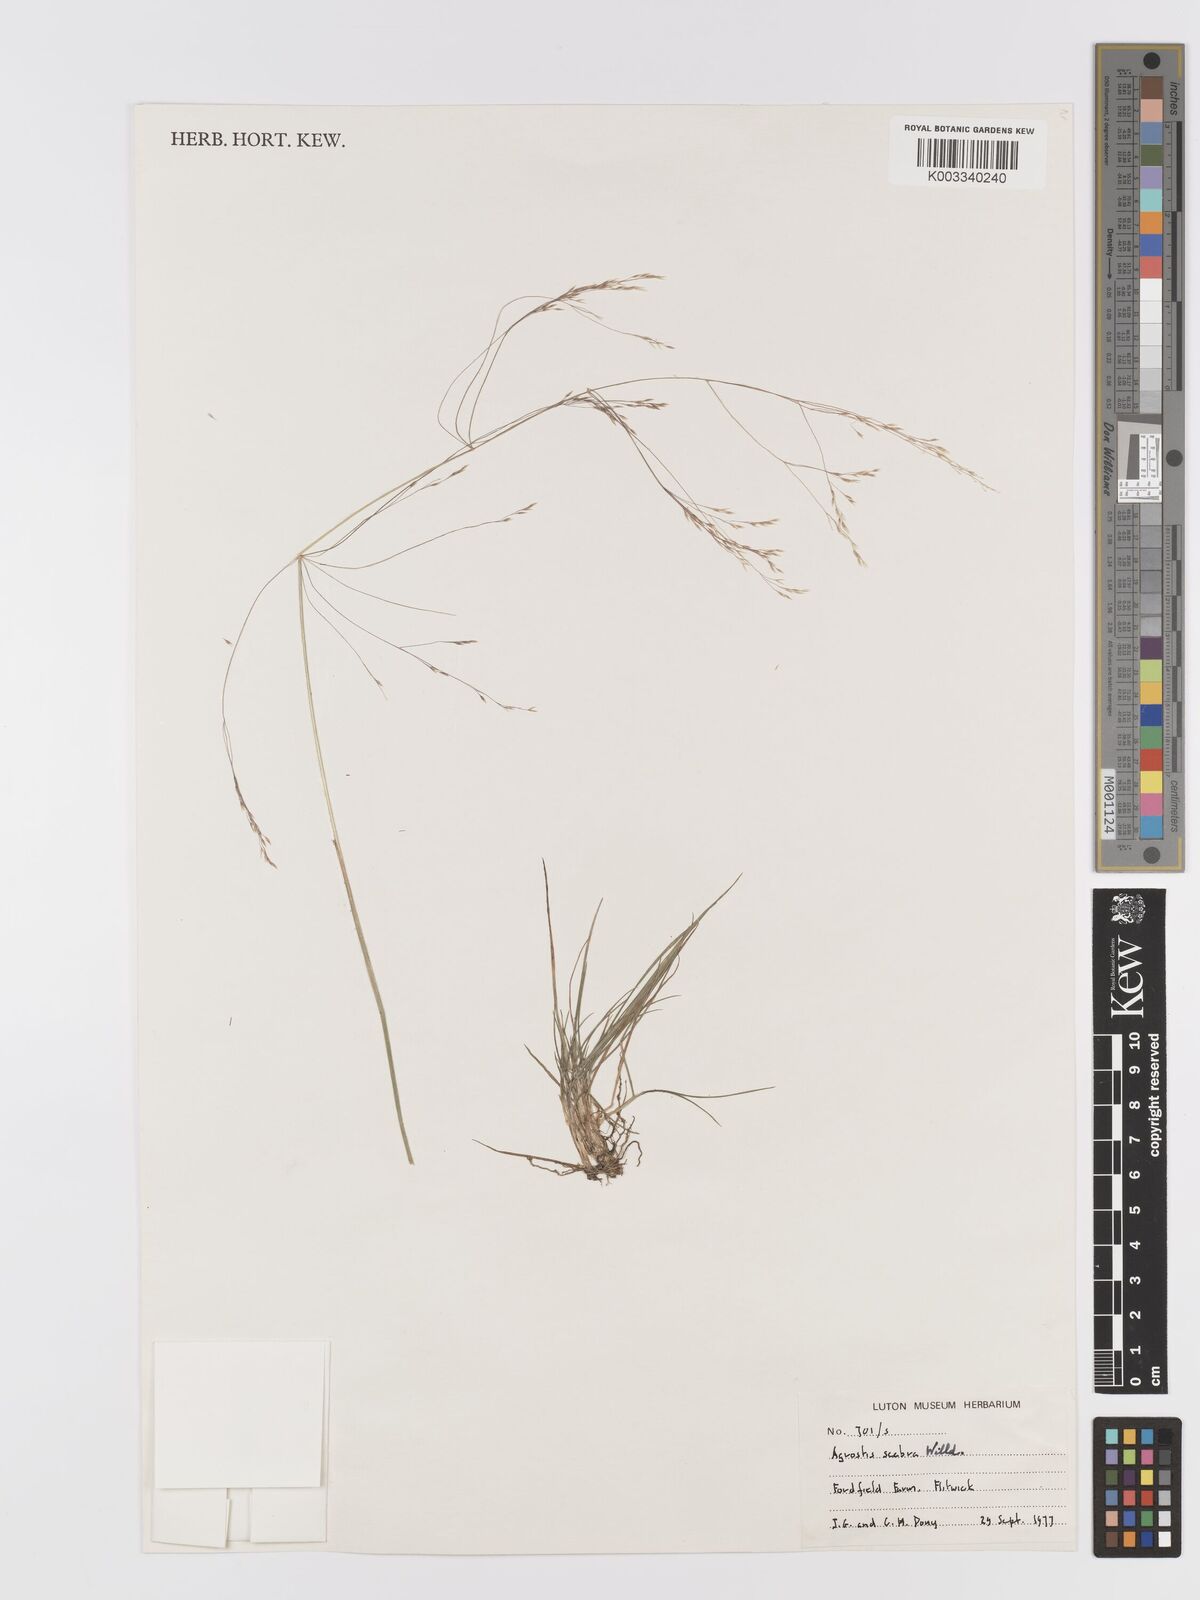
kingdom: Plantae
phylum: Tracheophyta
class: Liliopsida
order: Poales
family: Poaceae
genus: Agrostis
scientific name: Agrostis scabra
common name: Rough bent
